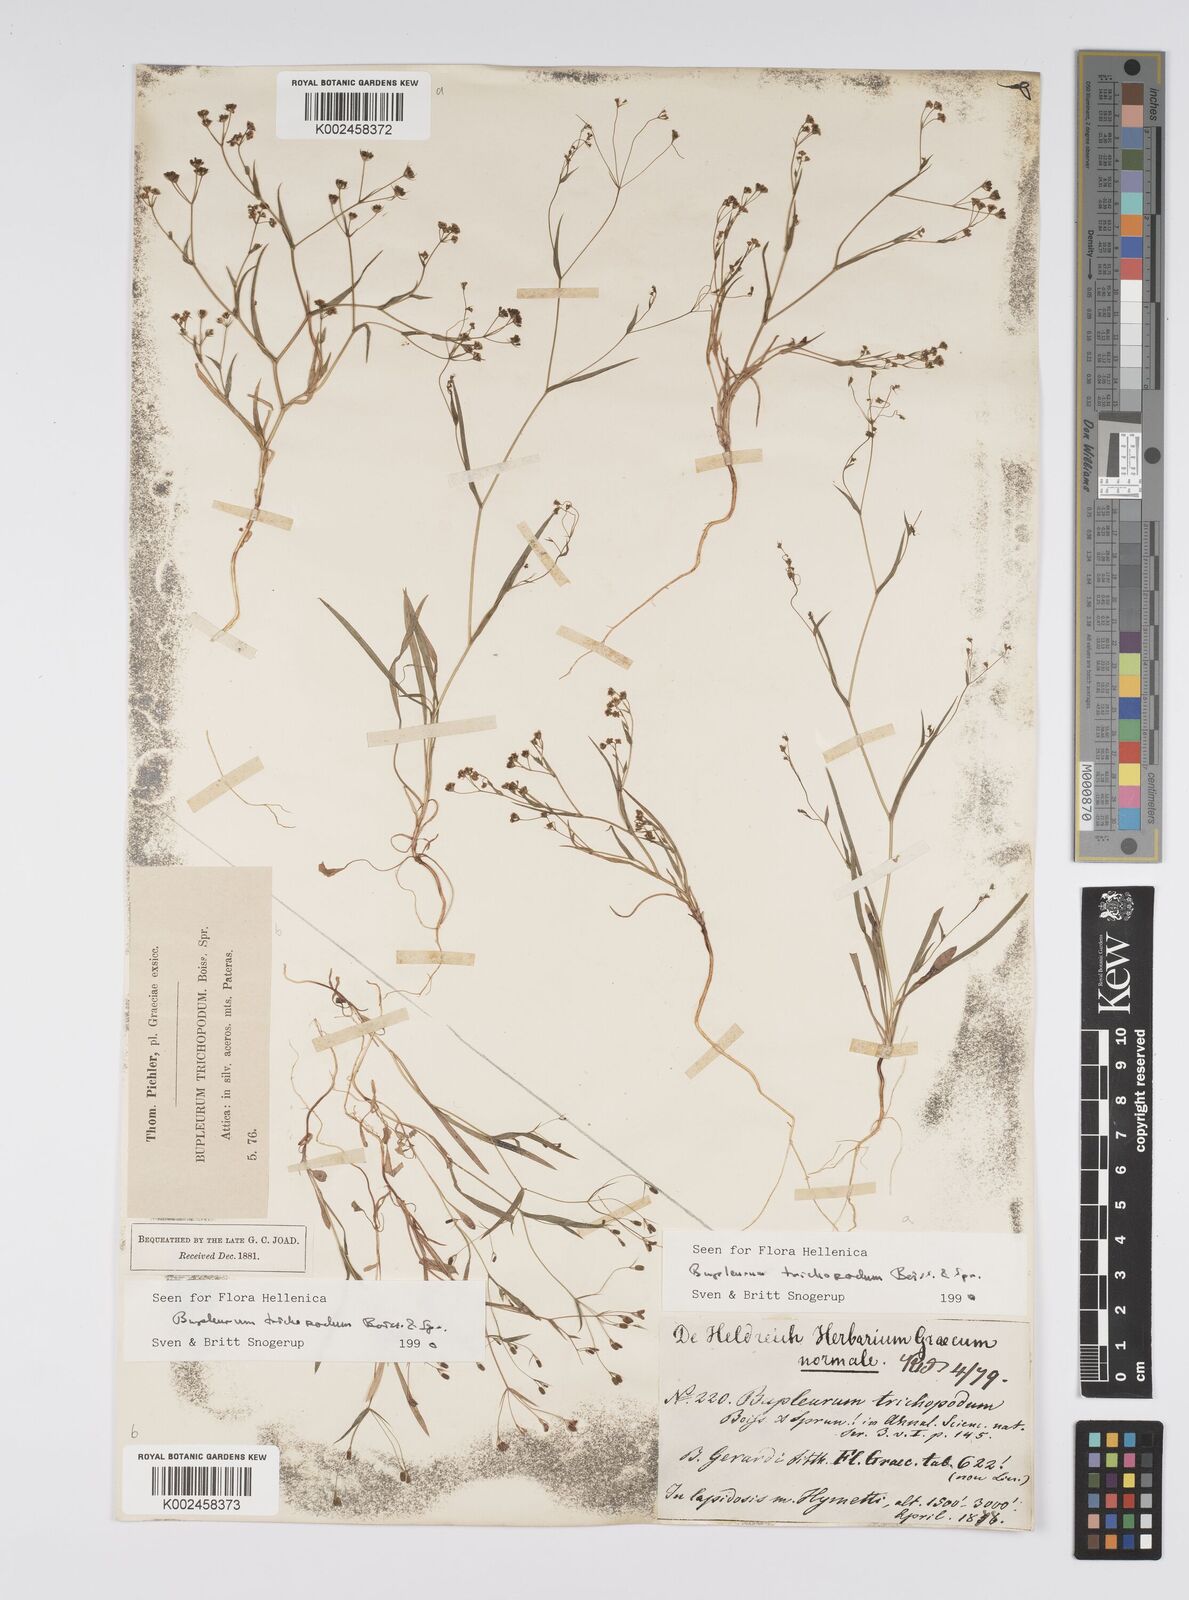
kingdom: Plantae
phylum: Tracheophyta
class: Magnoliopsida
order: Apiales
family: Apiaceae
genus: Bupleurum
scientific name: Bupleurum trichopodum
